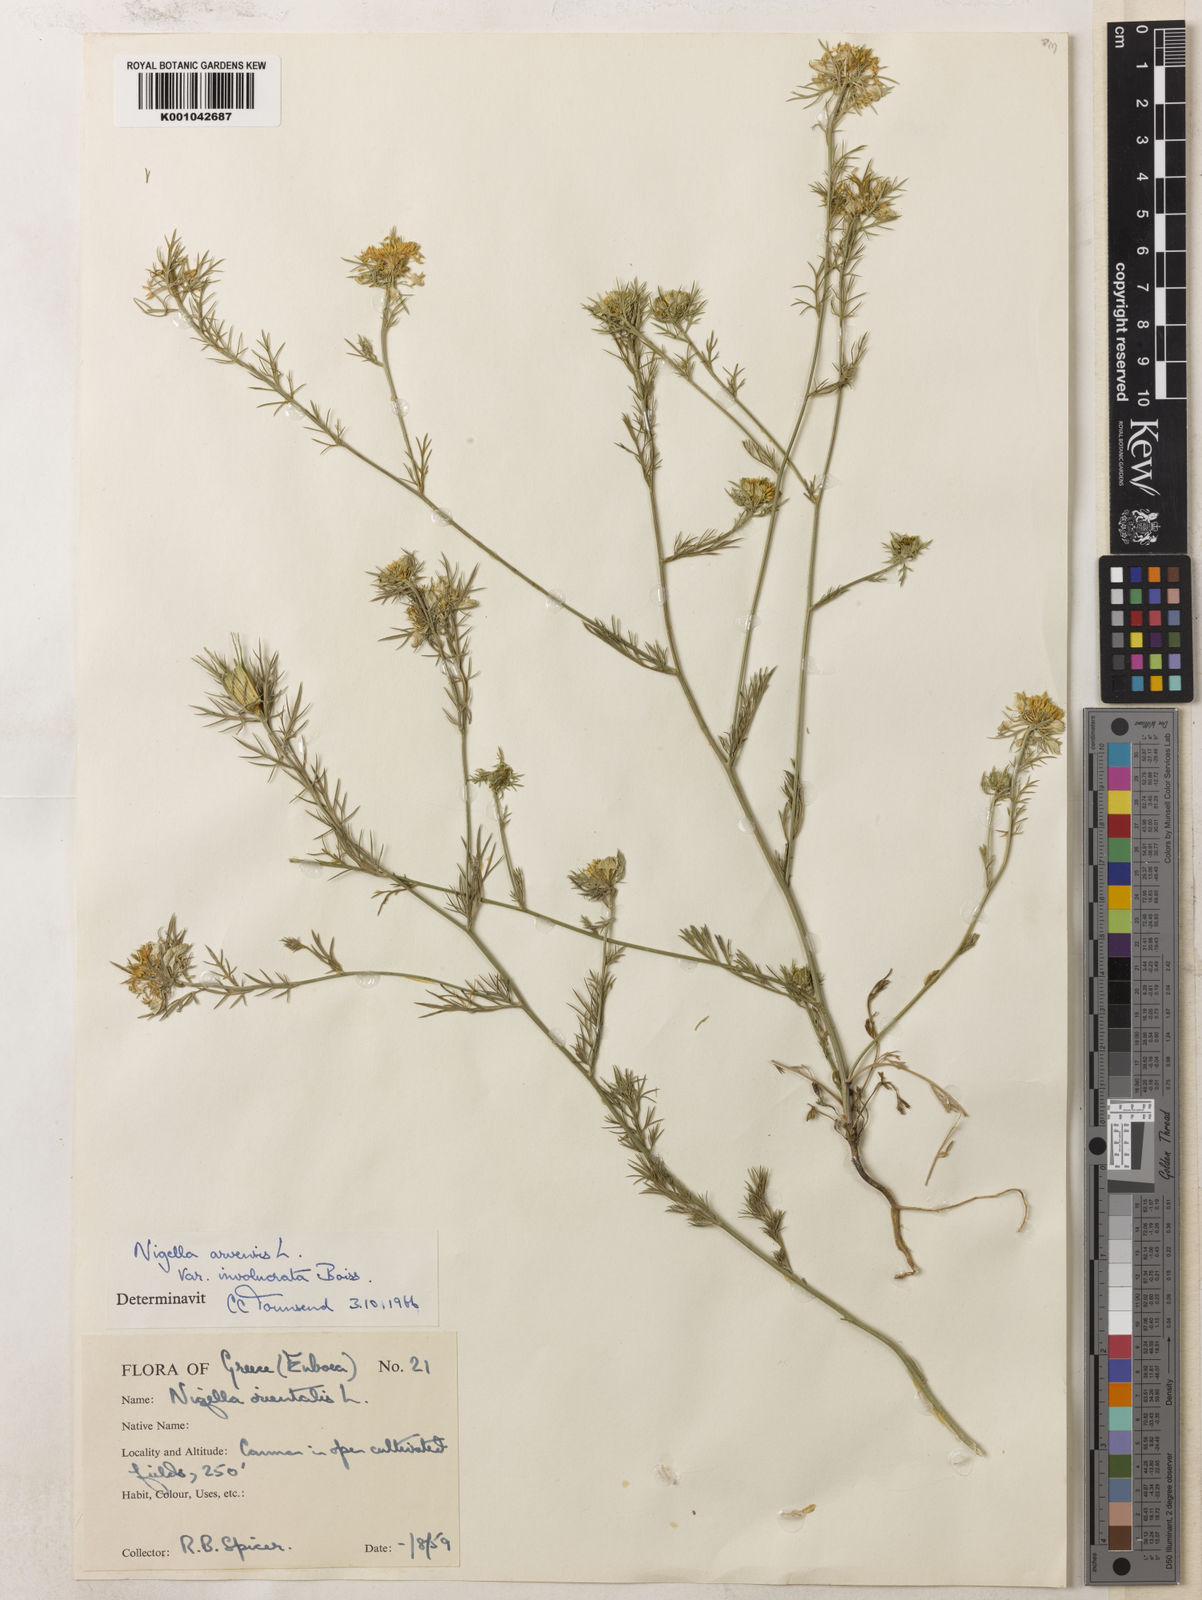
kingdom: Plantae
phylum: Tracheophyta
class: Magnoliopsida
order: Ranunculales
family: Ranunculaceae
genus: Nigella
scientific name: Nigella arvensis
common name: Wild fennel-flower
